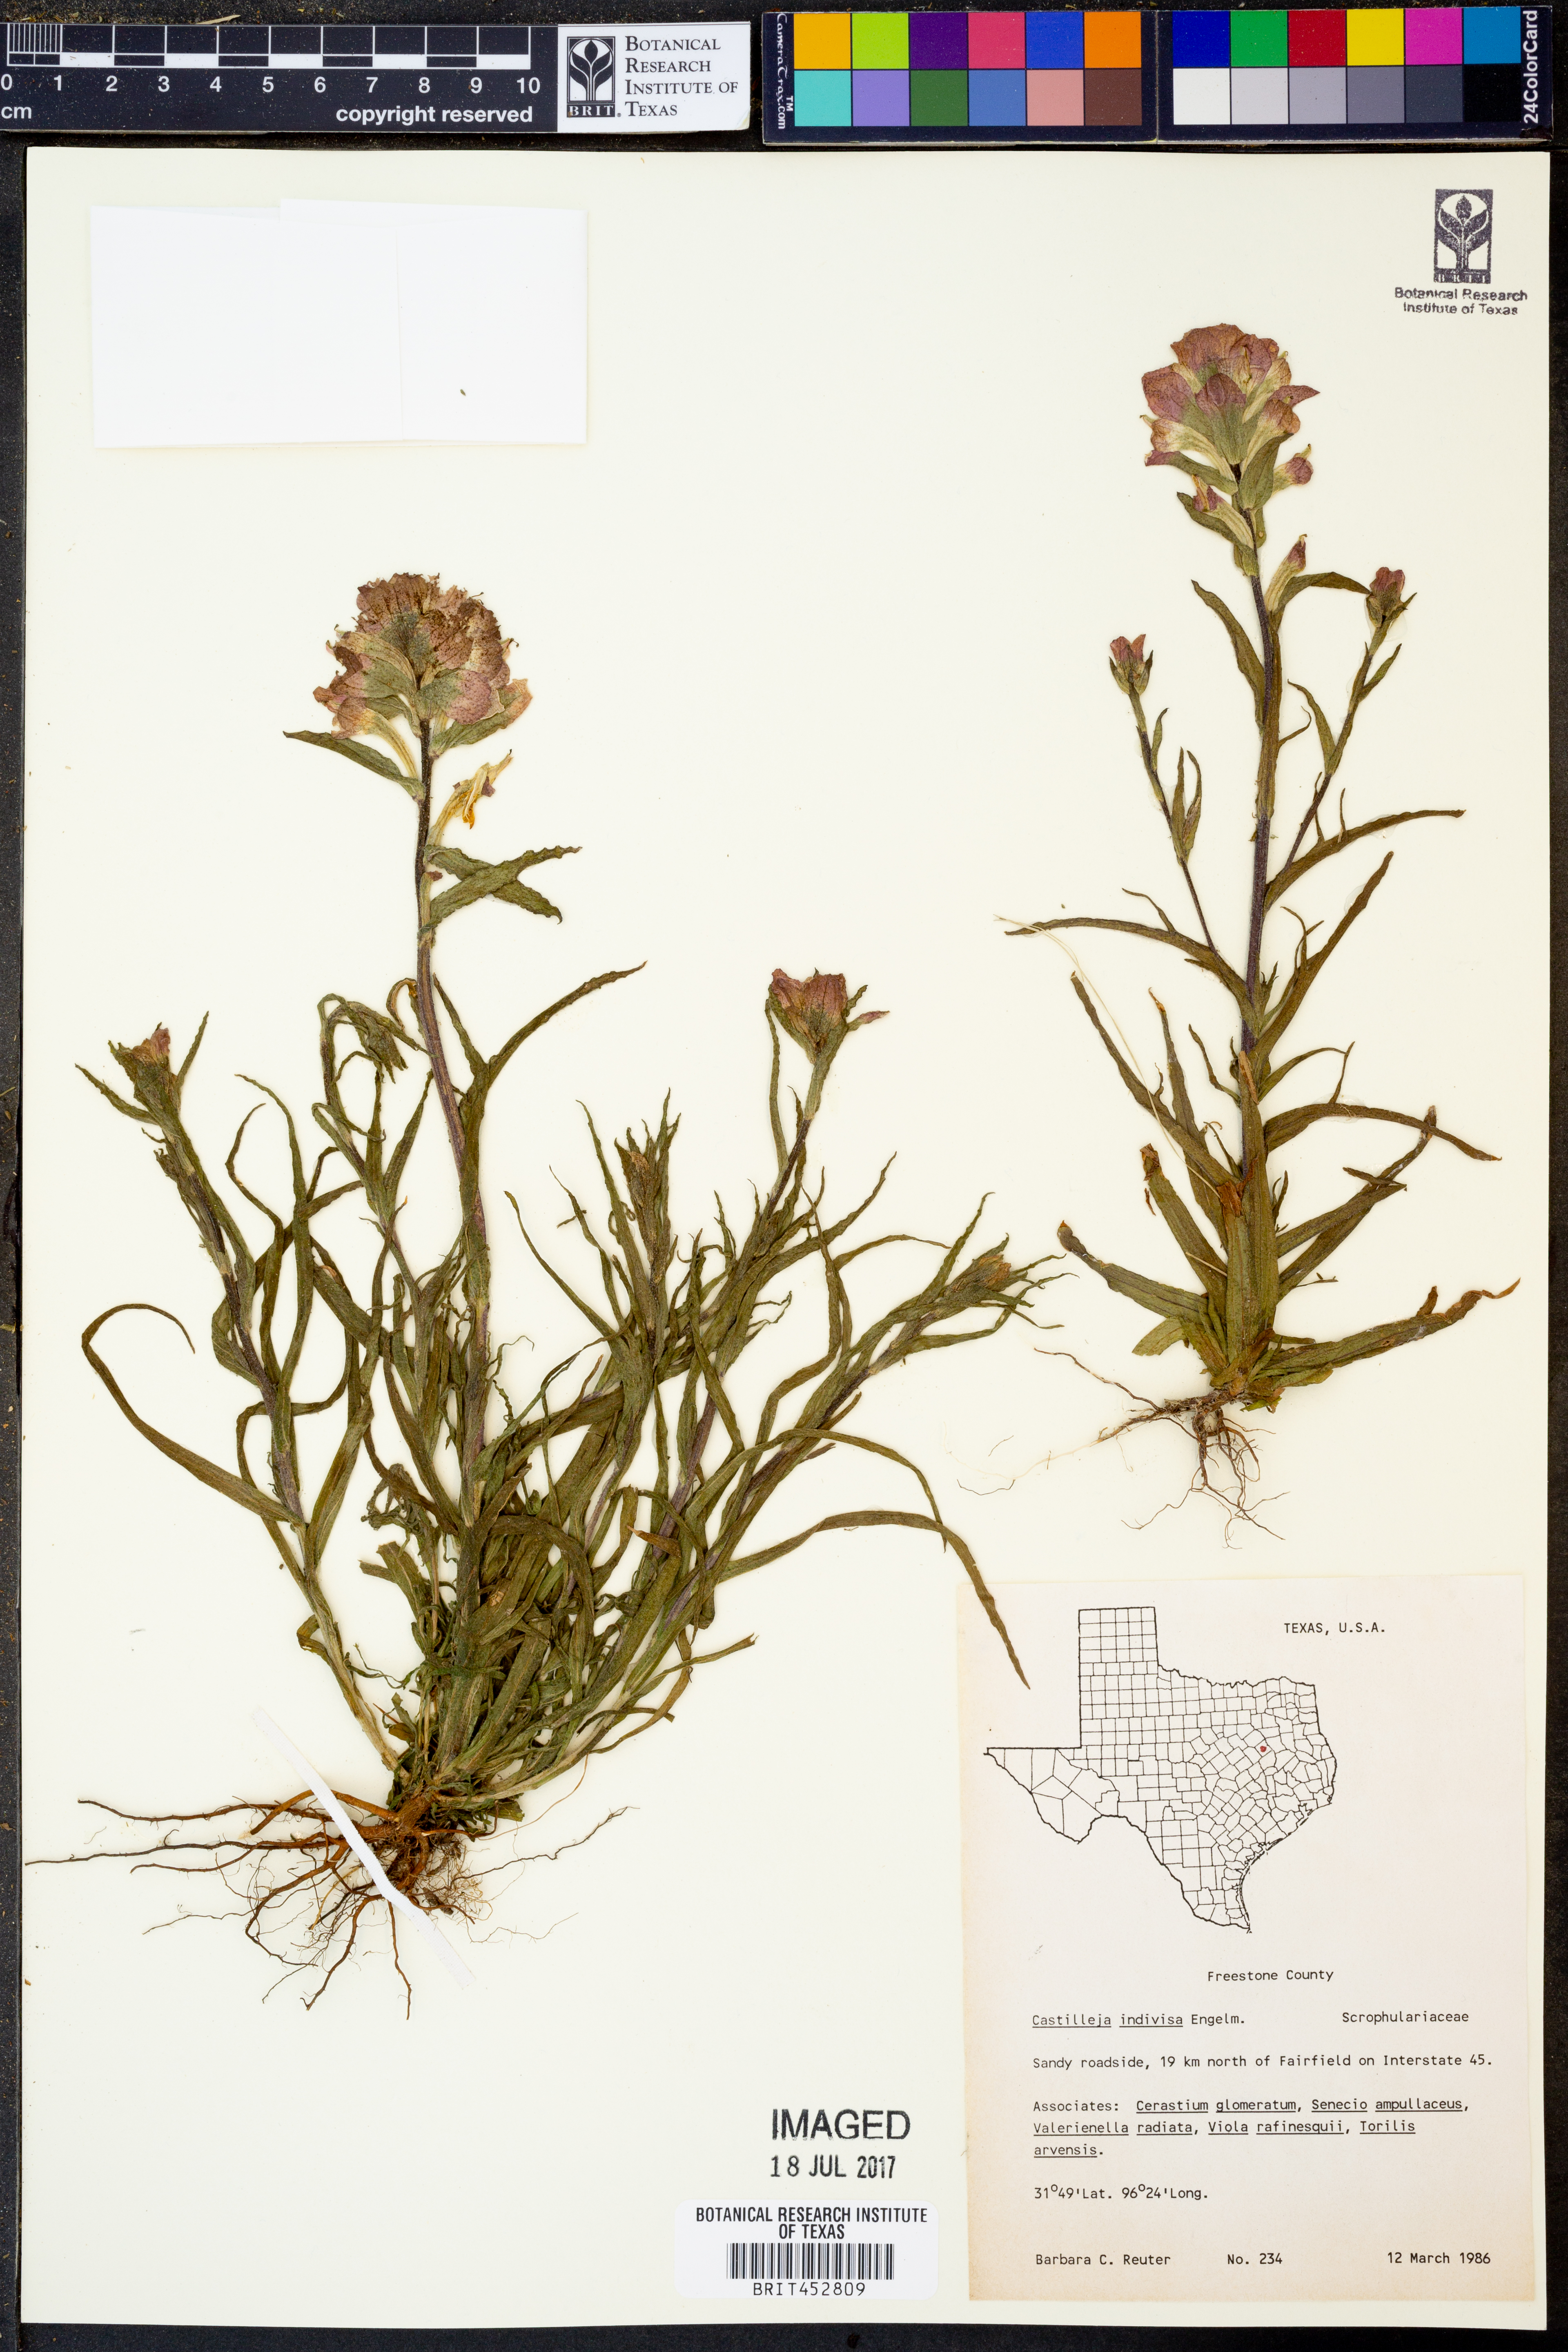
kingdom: Plantae
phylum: Tracheophyta
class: Magnoliopsida
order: Lamiales
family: Orobanchaceae
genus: Castilleja
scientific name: Castilleja indivisa
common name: Texas paintbrush
